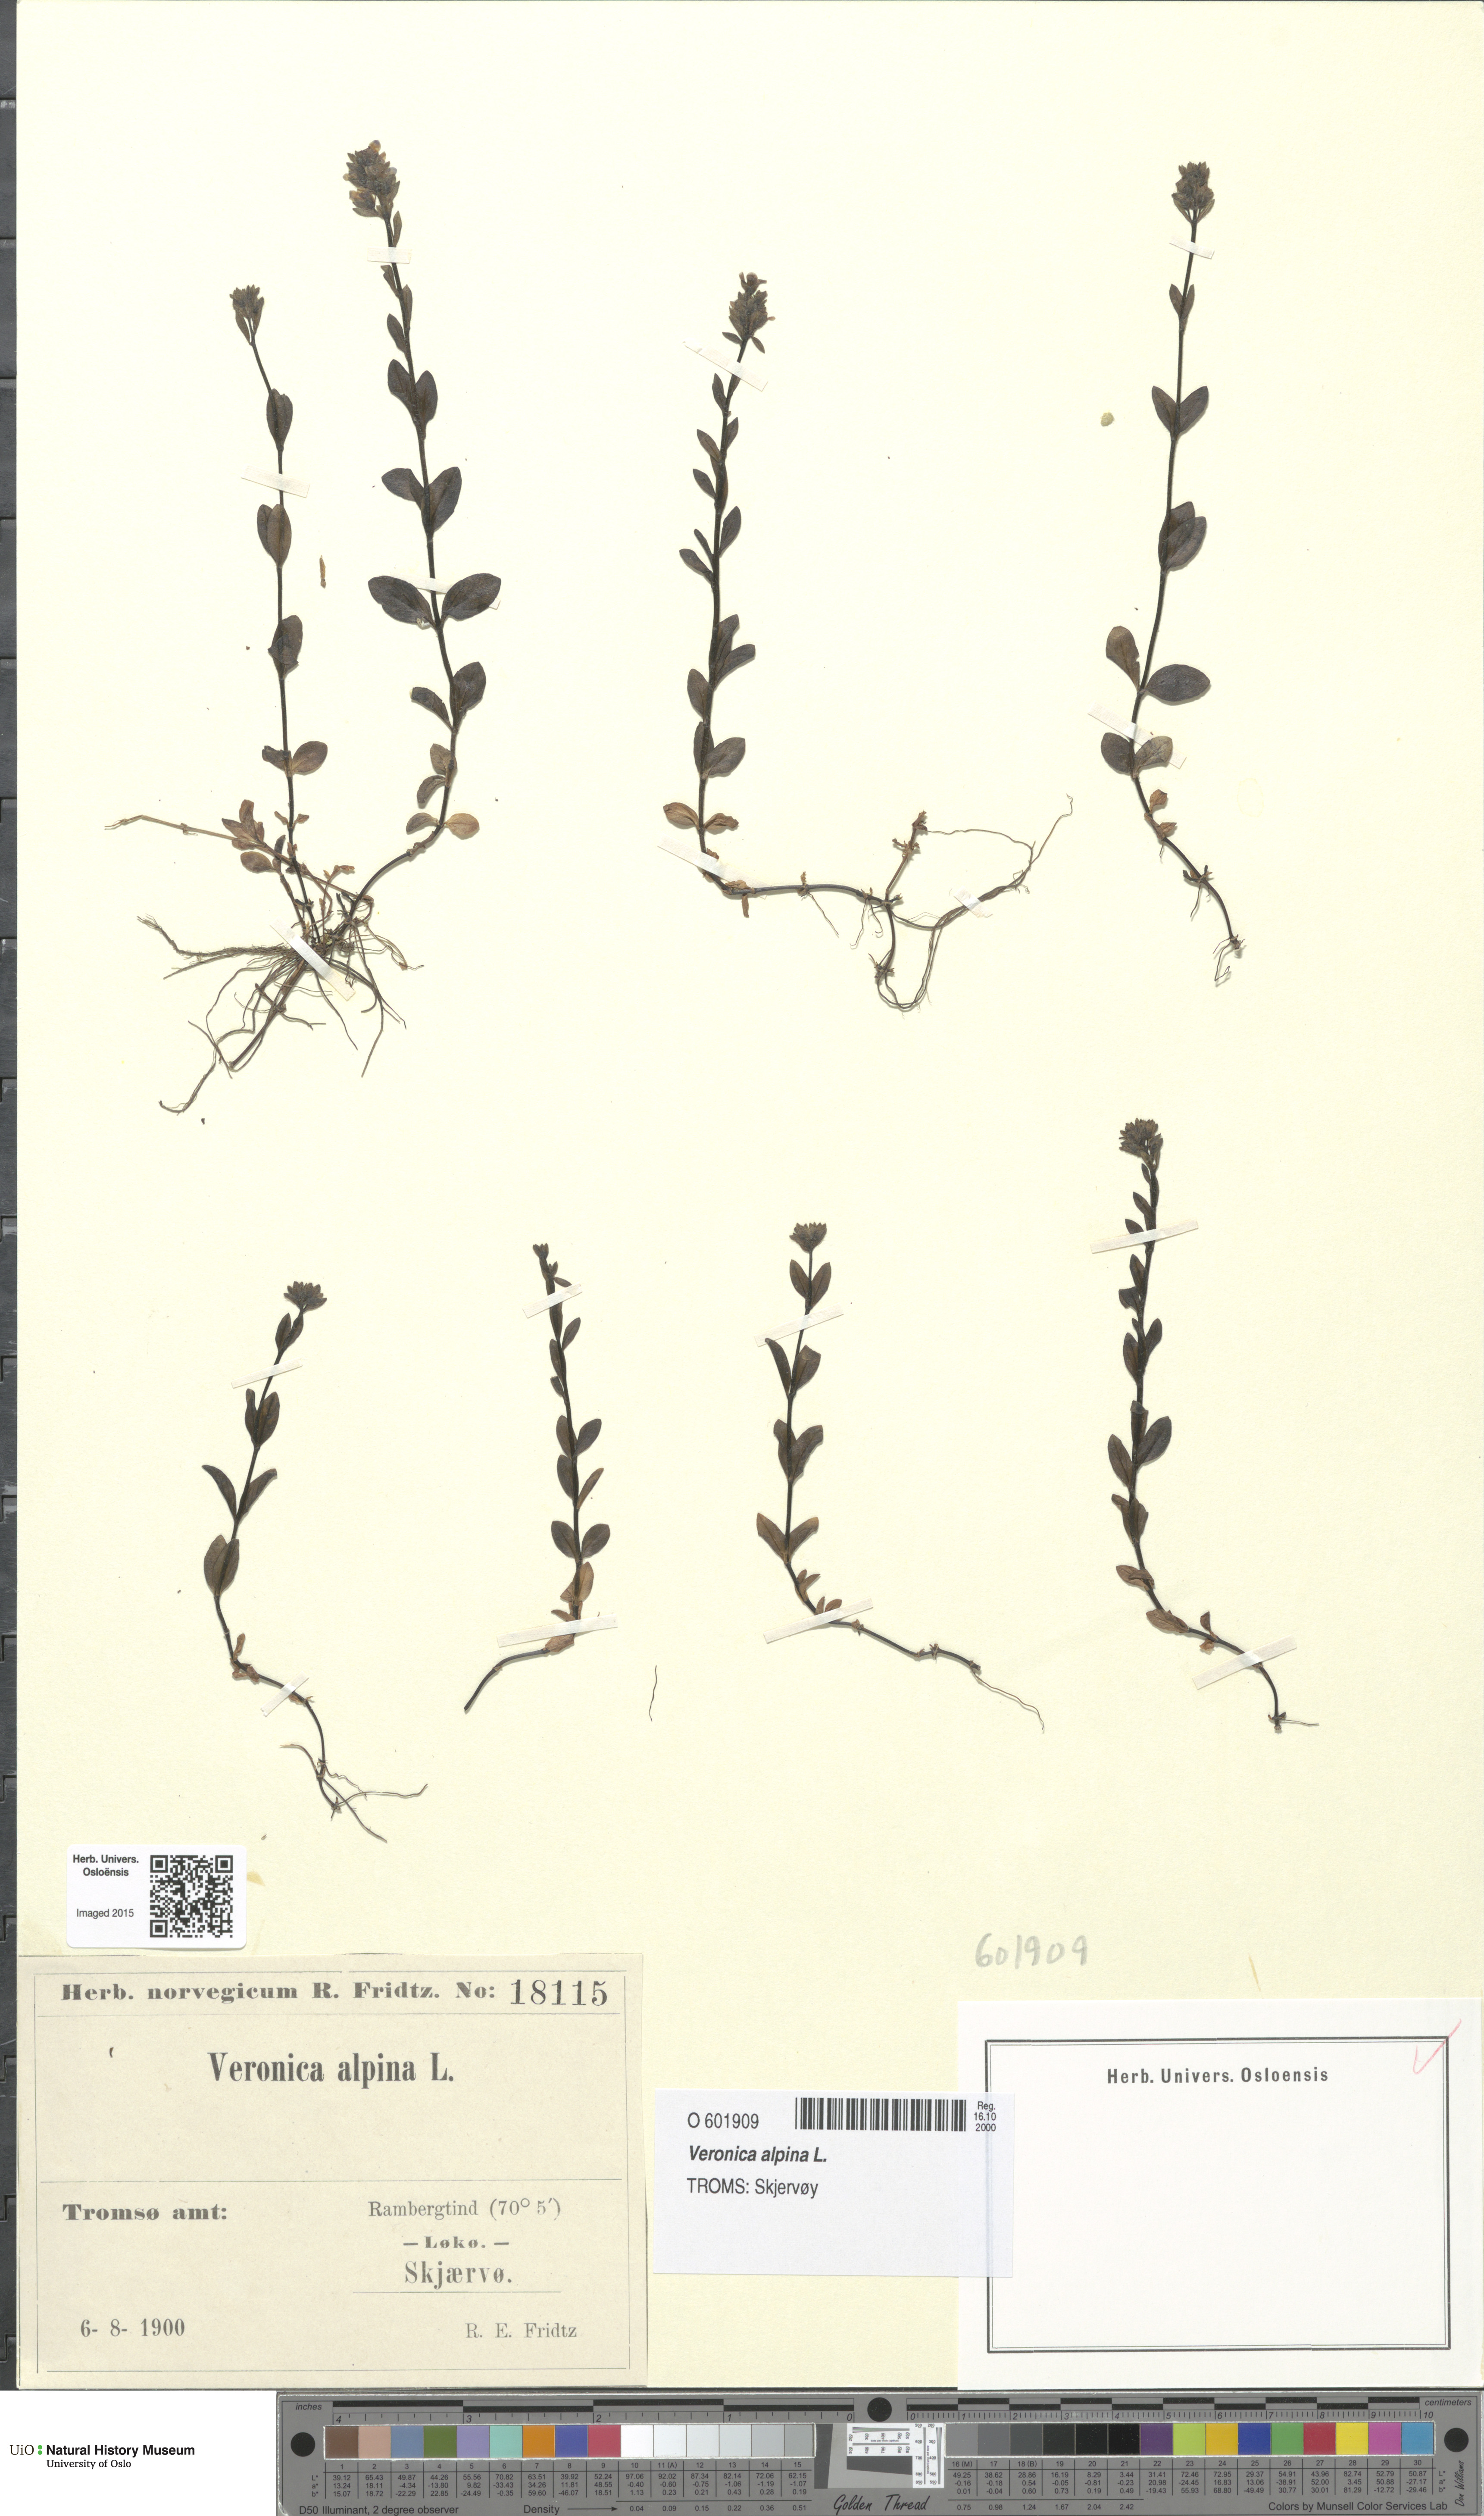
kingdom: Plantae
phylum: Tracheophyta
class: Magnoliopsida
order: Lamiales
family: Plantaginaceae
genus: Veronica
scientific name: Veronica alpina
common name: Alpine speedwell
